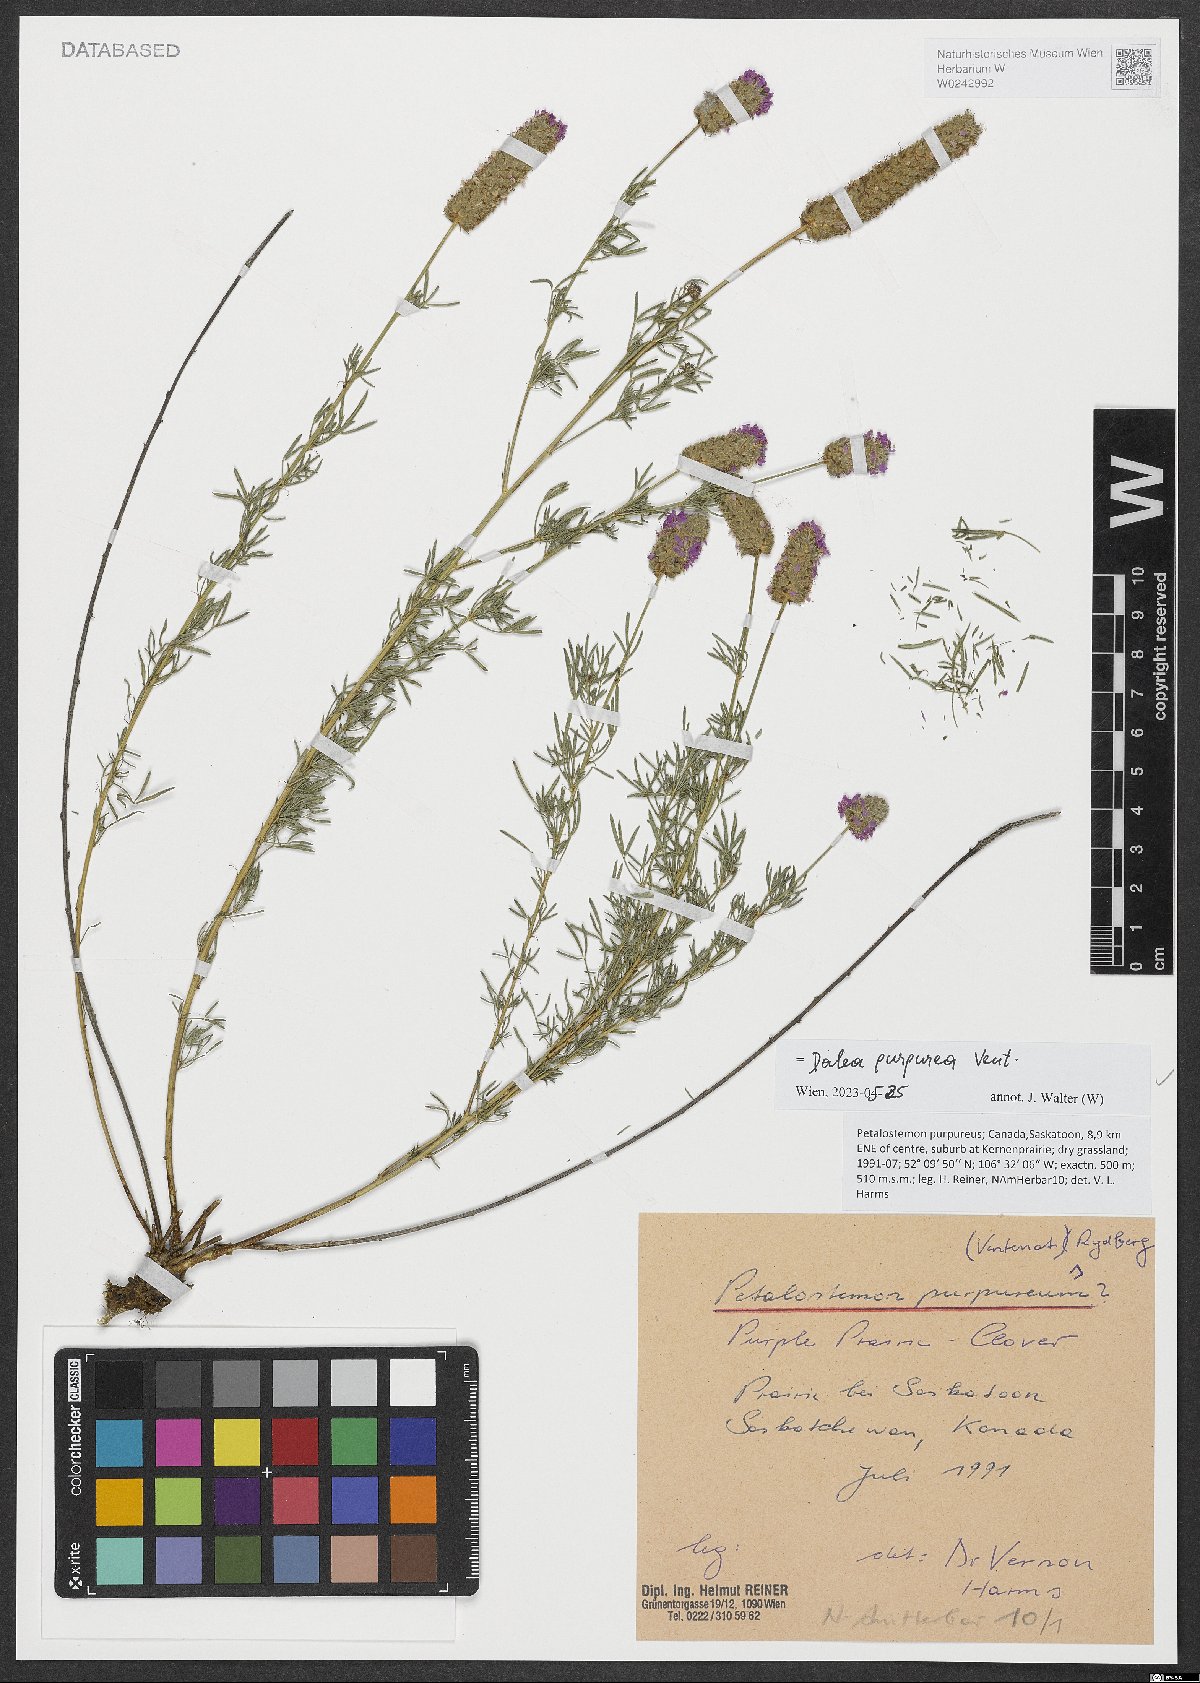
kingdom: Plantae
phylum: Tracheophyta
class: Magnoliopsida
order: Fabales
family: Fabaceae
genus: Dalea
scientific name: Dalea purpurea
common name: Purple prairie-clover
